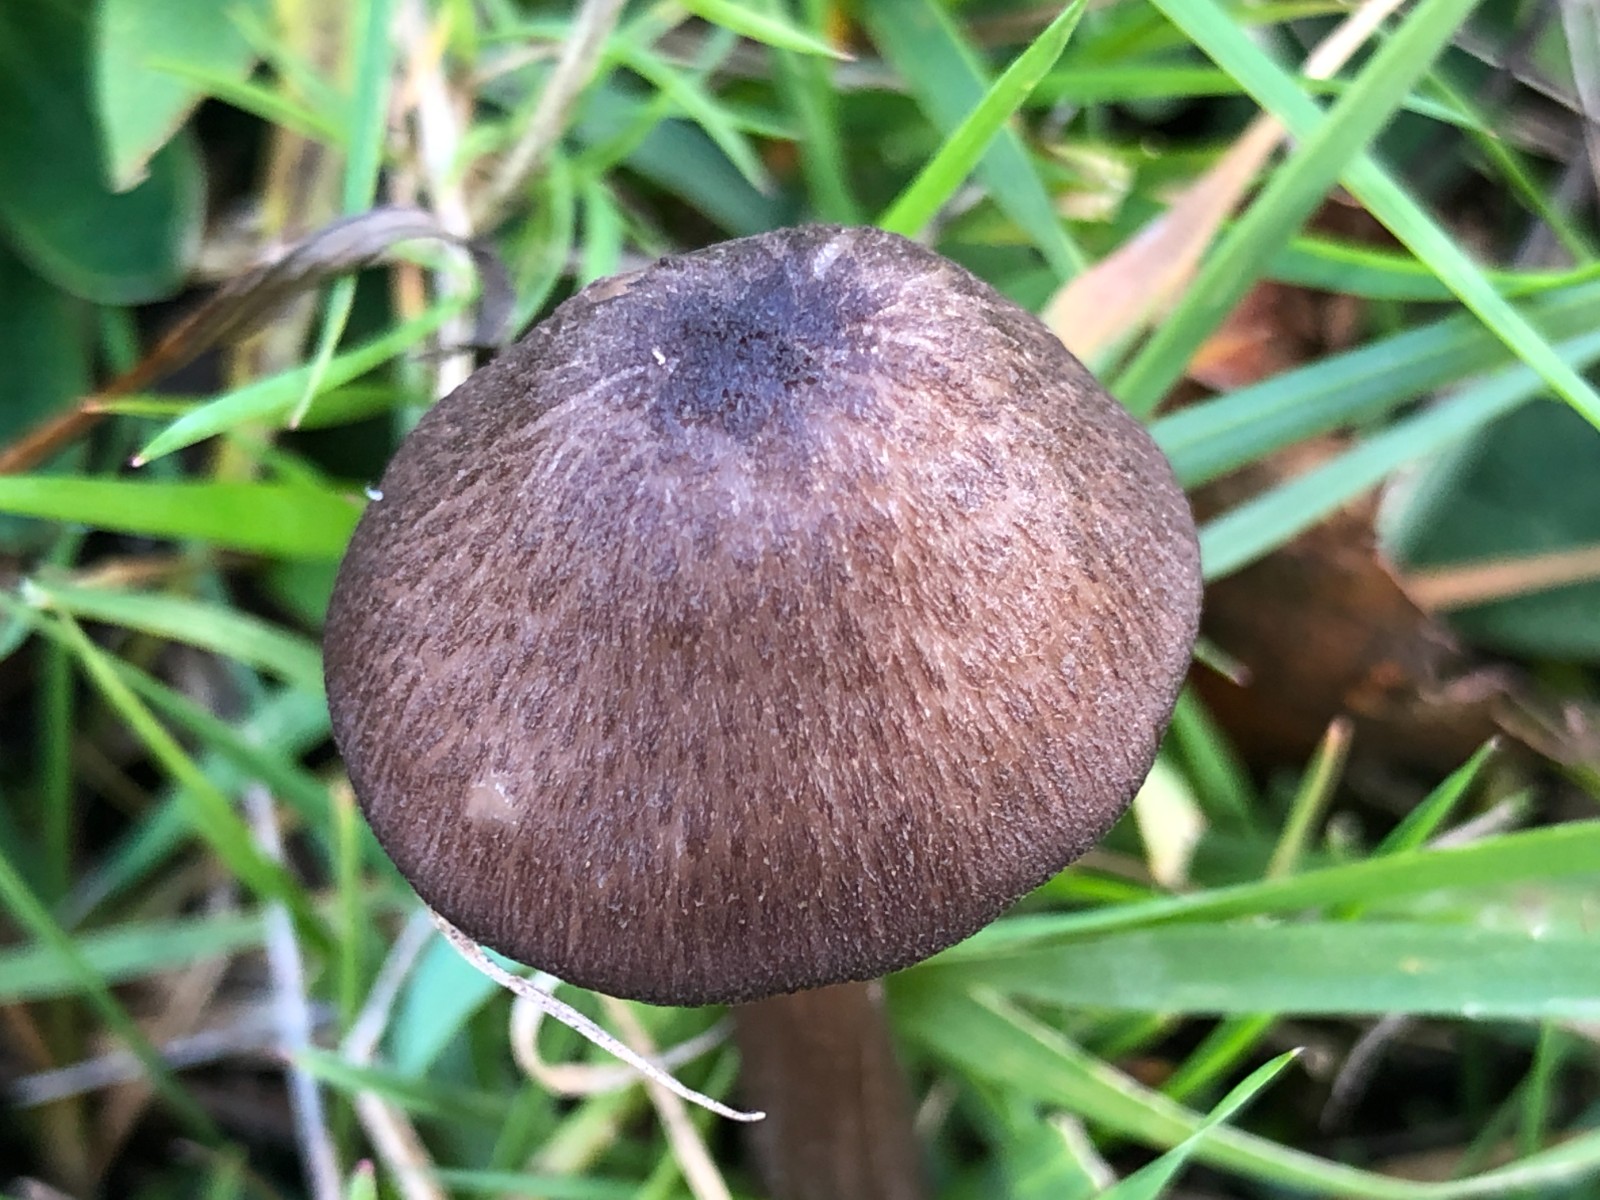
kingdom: Fungi
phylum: Basidiomycota
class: Agaricomycetes
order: Agaricales
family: Entolomataceae
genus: Entoloma
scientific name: Entoloma porphyrogriseum
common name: porfyrgrå rødblad
